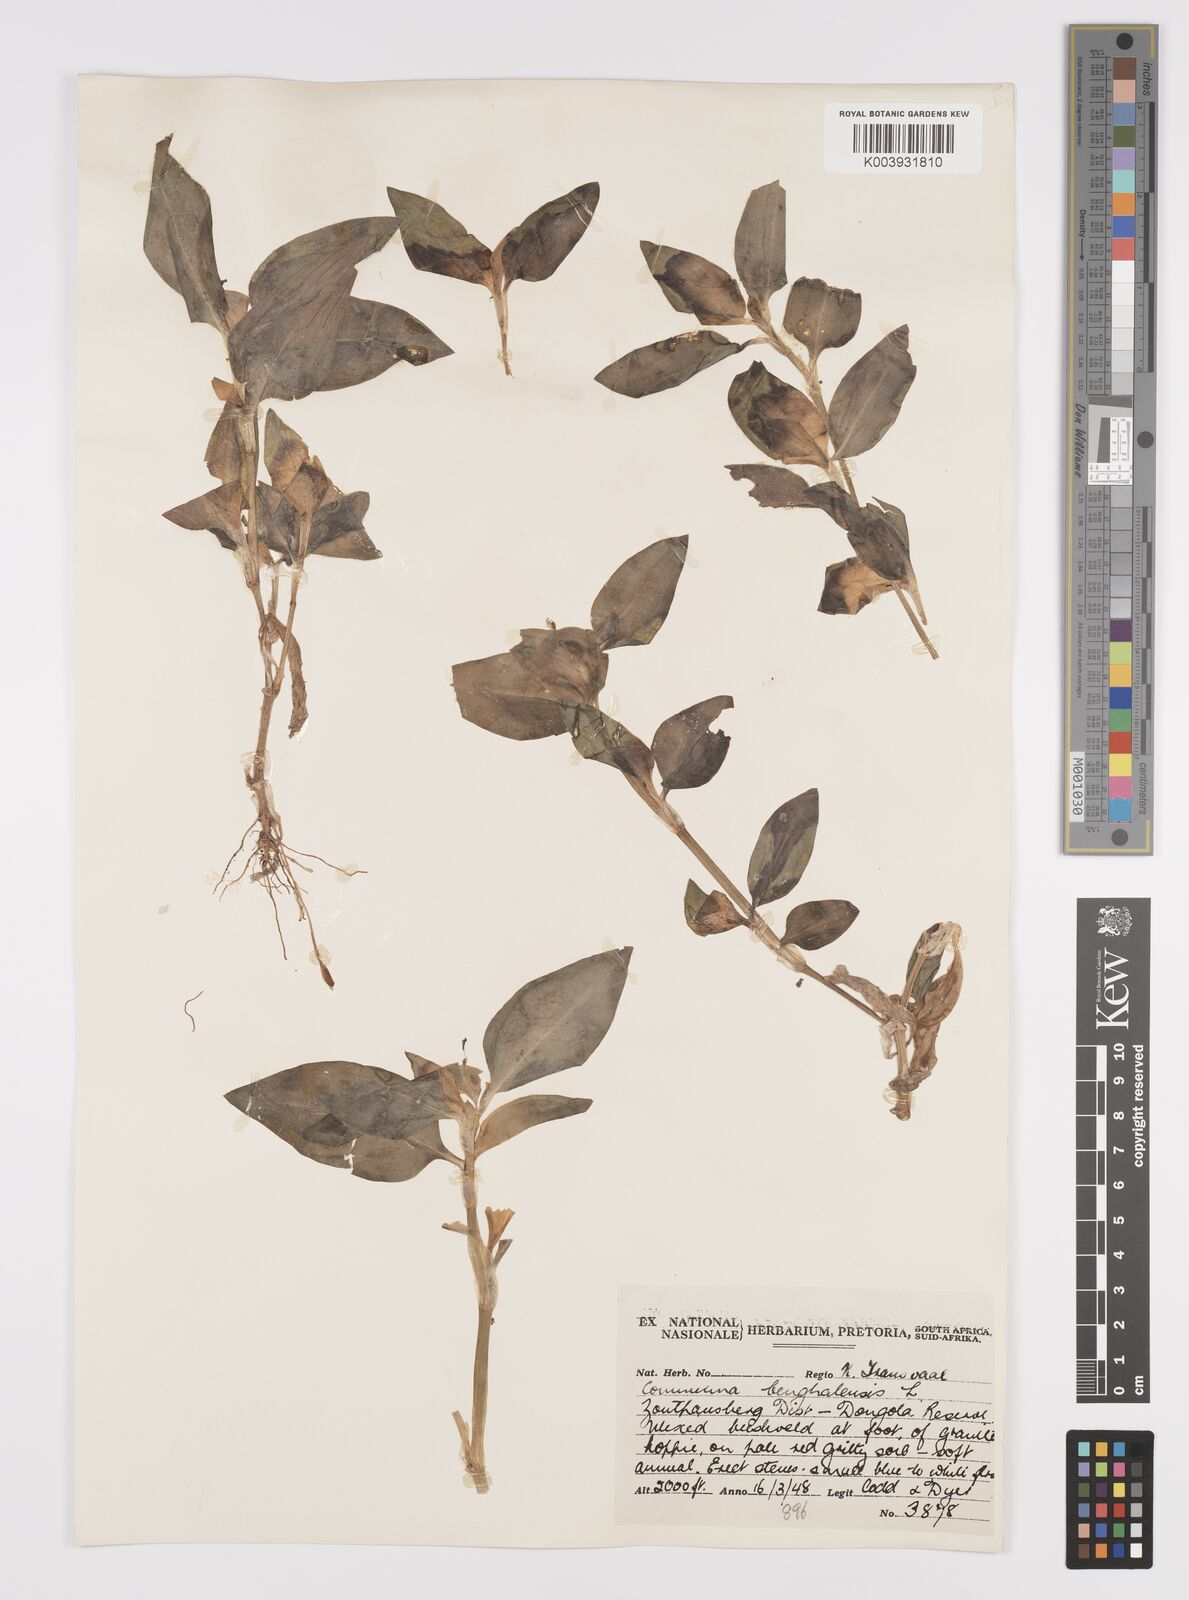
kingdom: Plantae
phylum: Tracheophyta
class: Liliopsida
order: Commelinales
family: Commelinaceae
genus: Commelina
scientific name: Commelina benghalensis
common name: Jio
